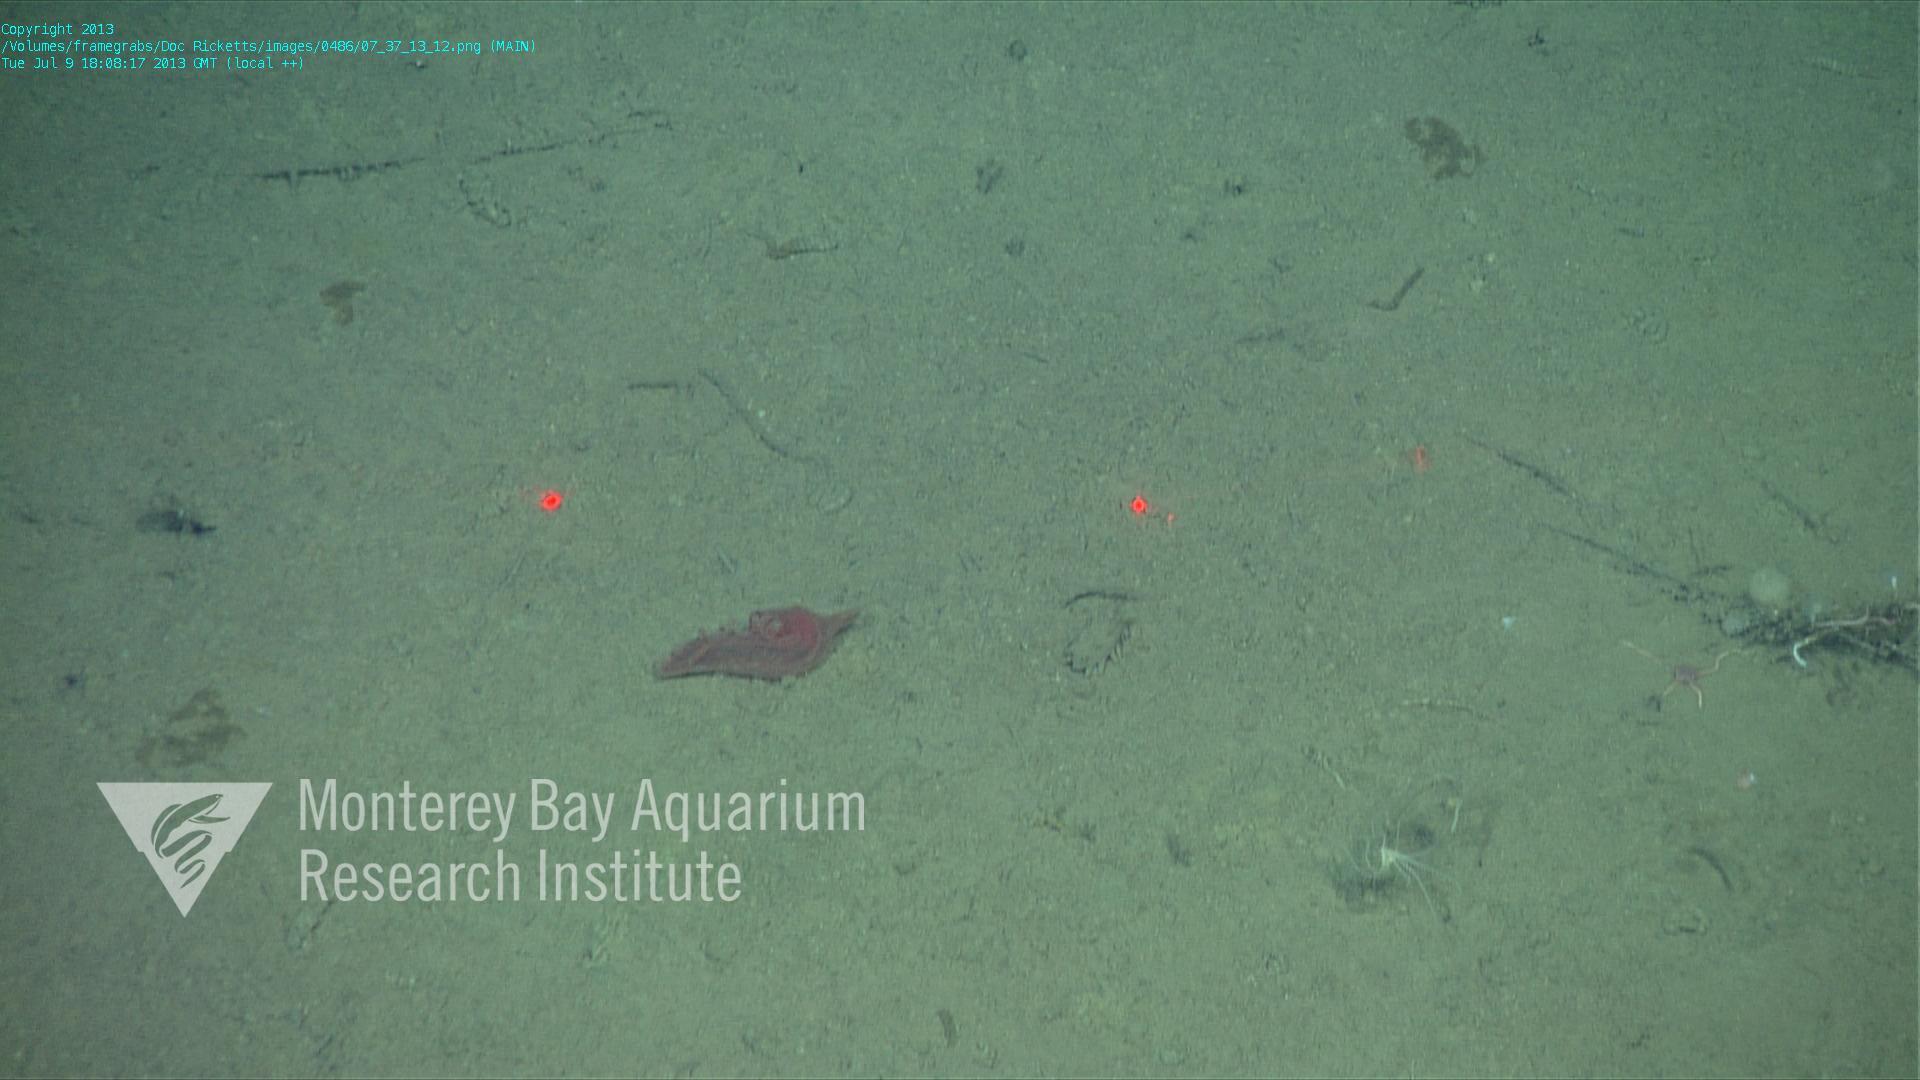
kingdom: Animalia
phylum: Porifera
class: Hexactinellida
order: Lyssacinosida
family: Rossellidae
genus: Bathydorus
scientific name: Bathydorus spinosus
